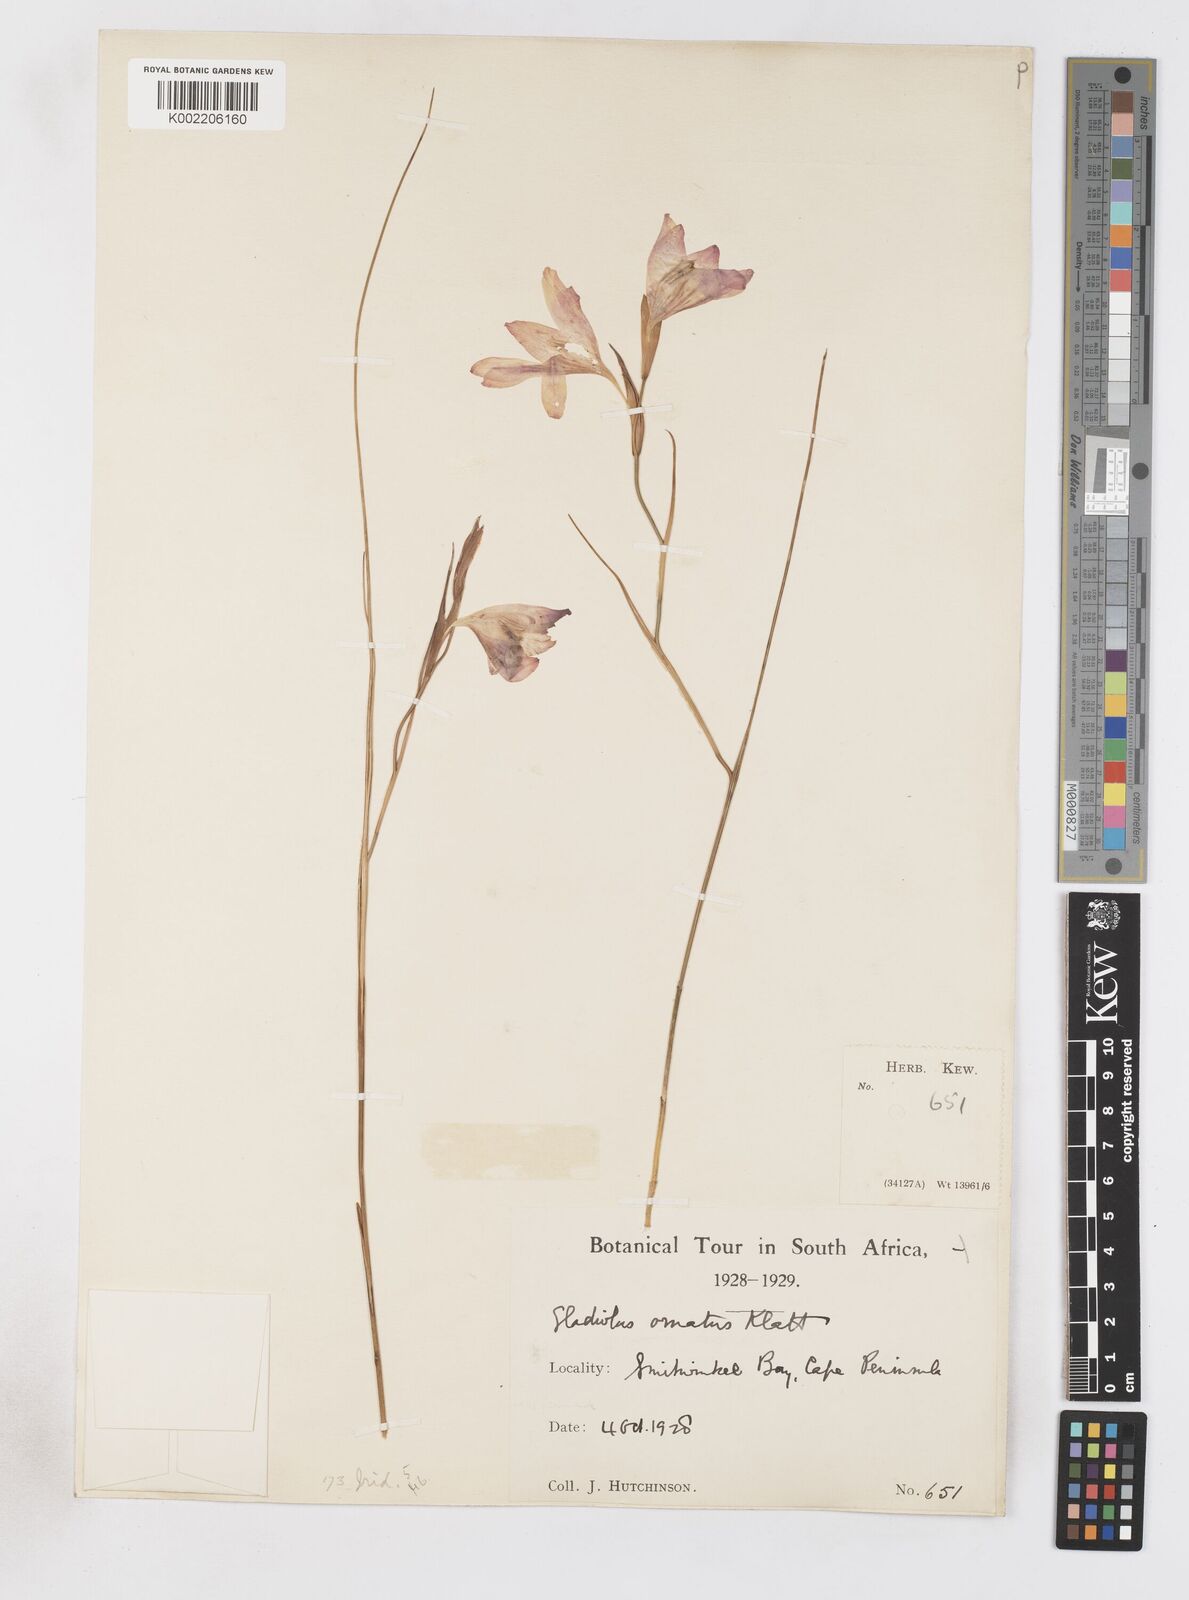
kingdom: Plantae
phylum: Tracheophyta
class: Liliopsida
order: Asparagales
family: Iridaceae
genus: Gladiolus
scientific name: Gladiolus ornatus
